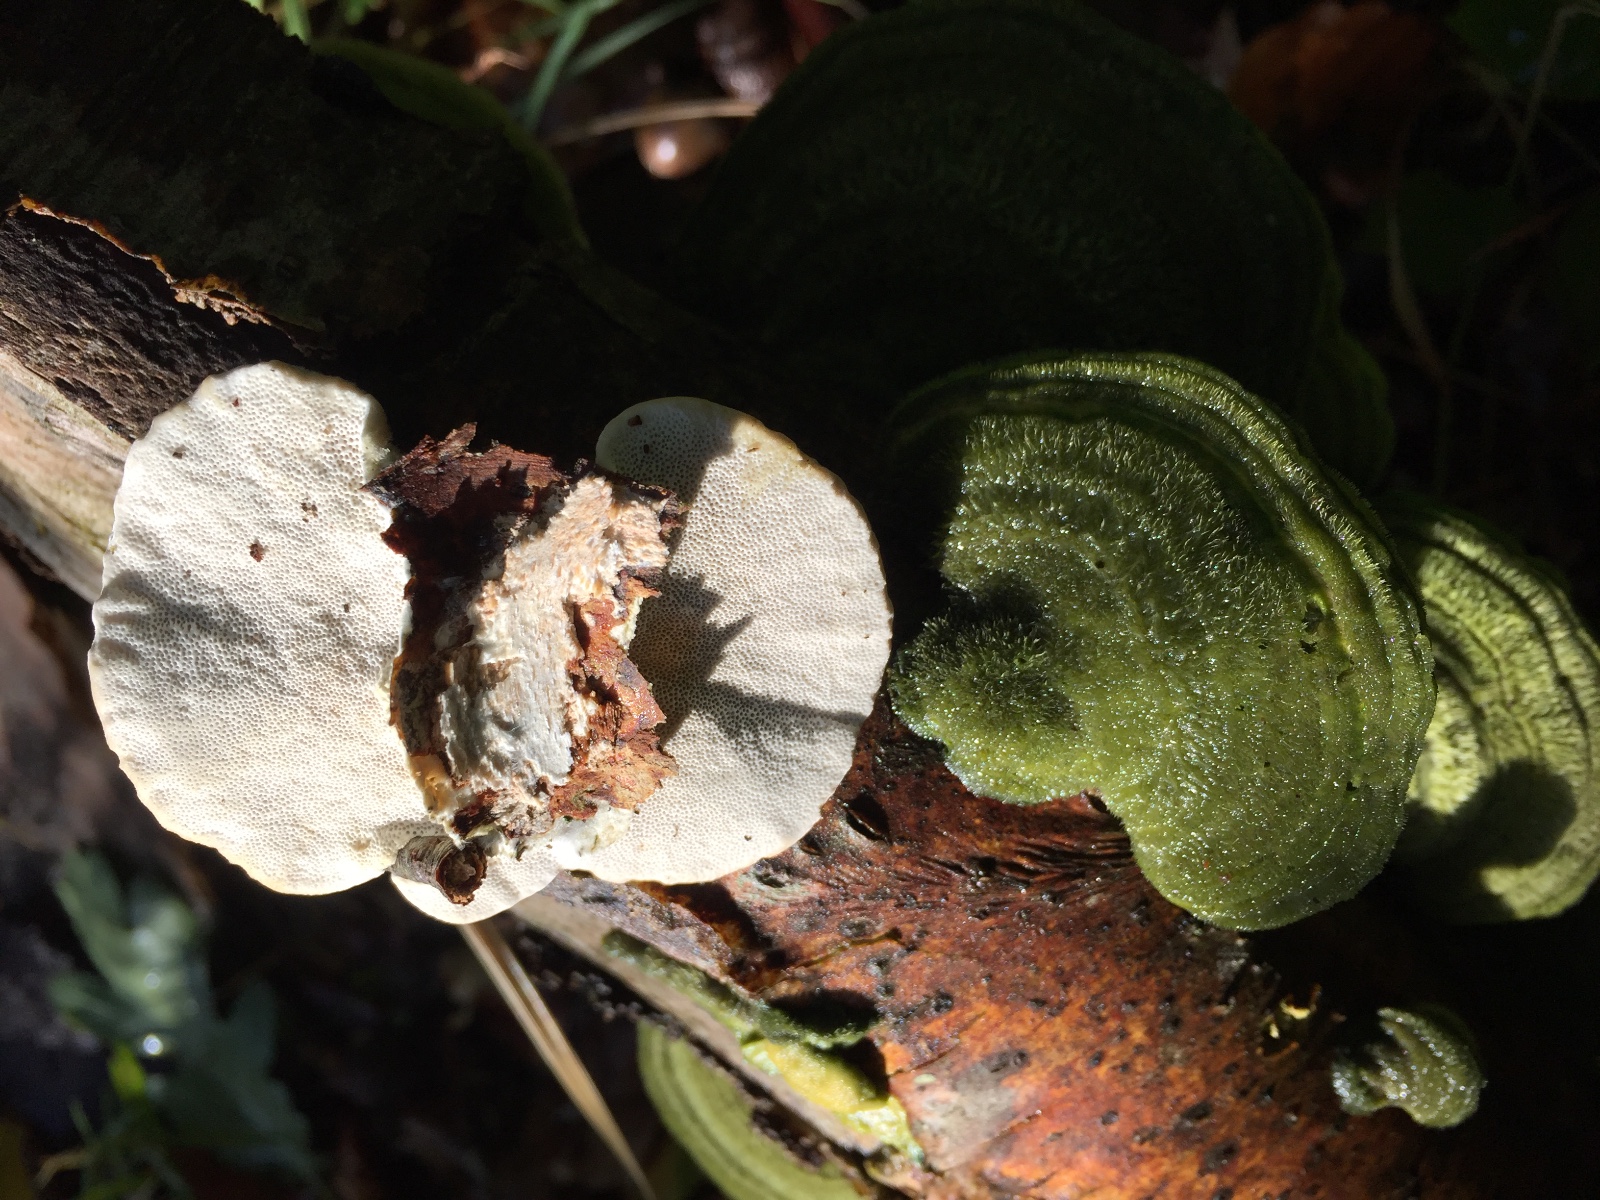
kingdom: Fungi
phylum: Basidiomycota
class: Agaricomycetes
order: Polyporales
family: Polyporaceae
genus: Trametes
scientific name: Trametes hirsuta
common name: håret læderporesvamp
